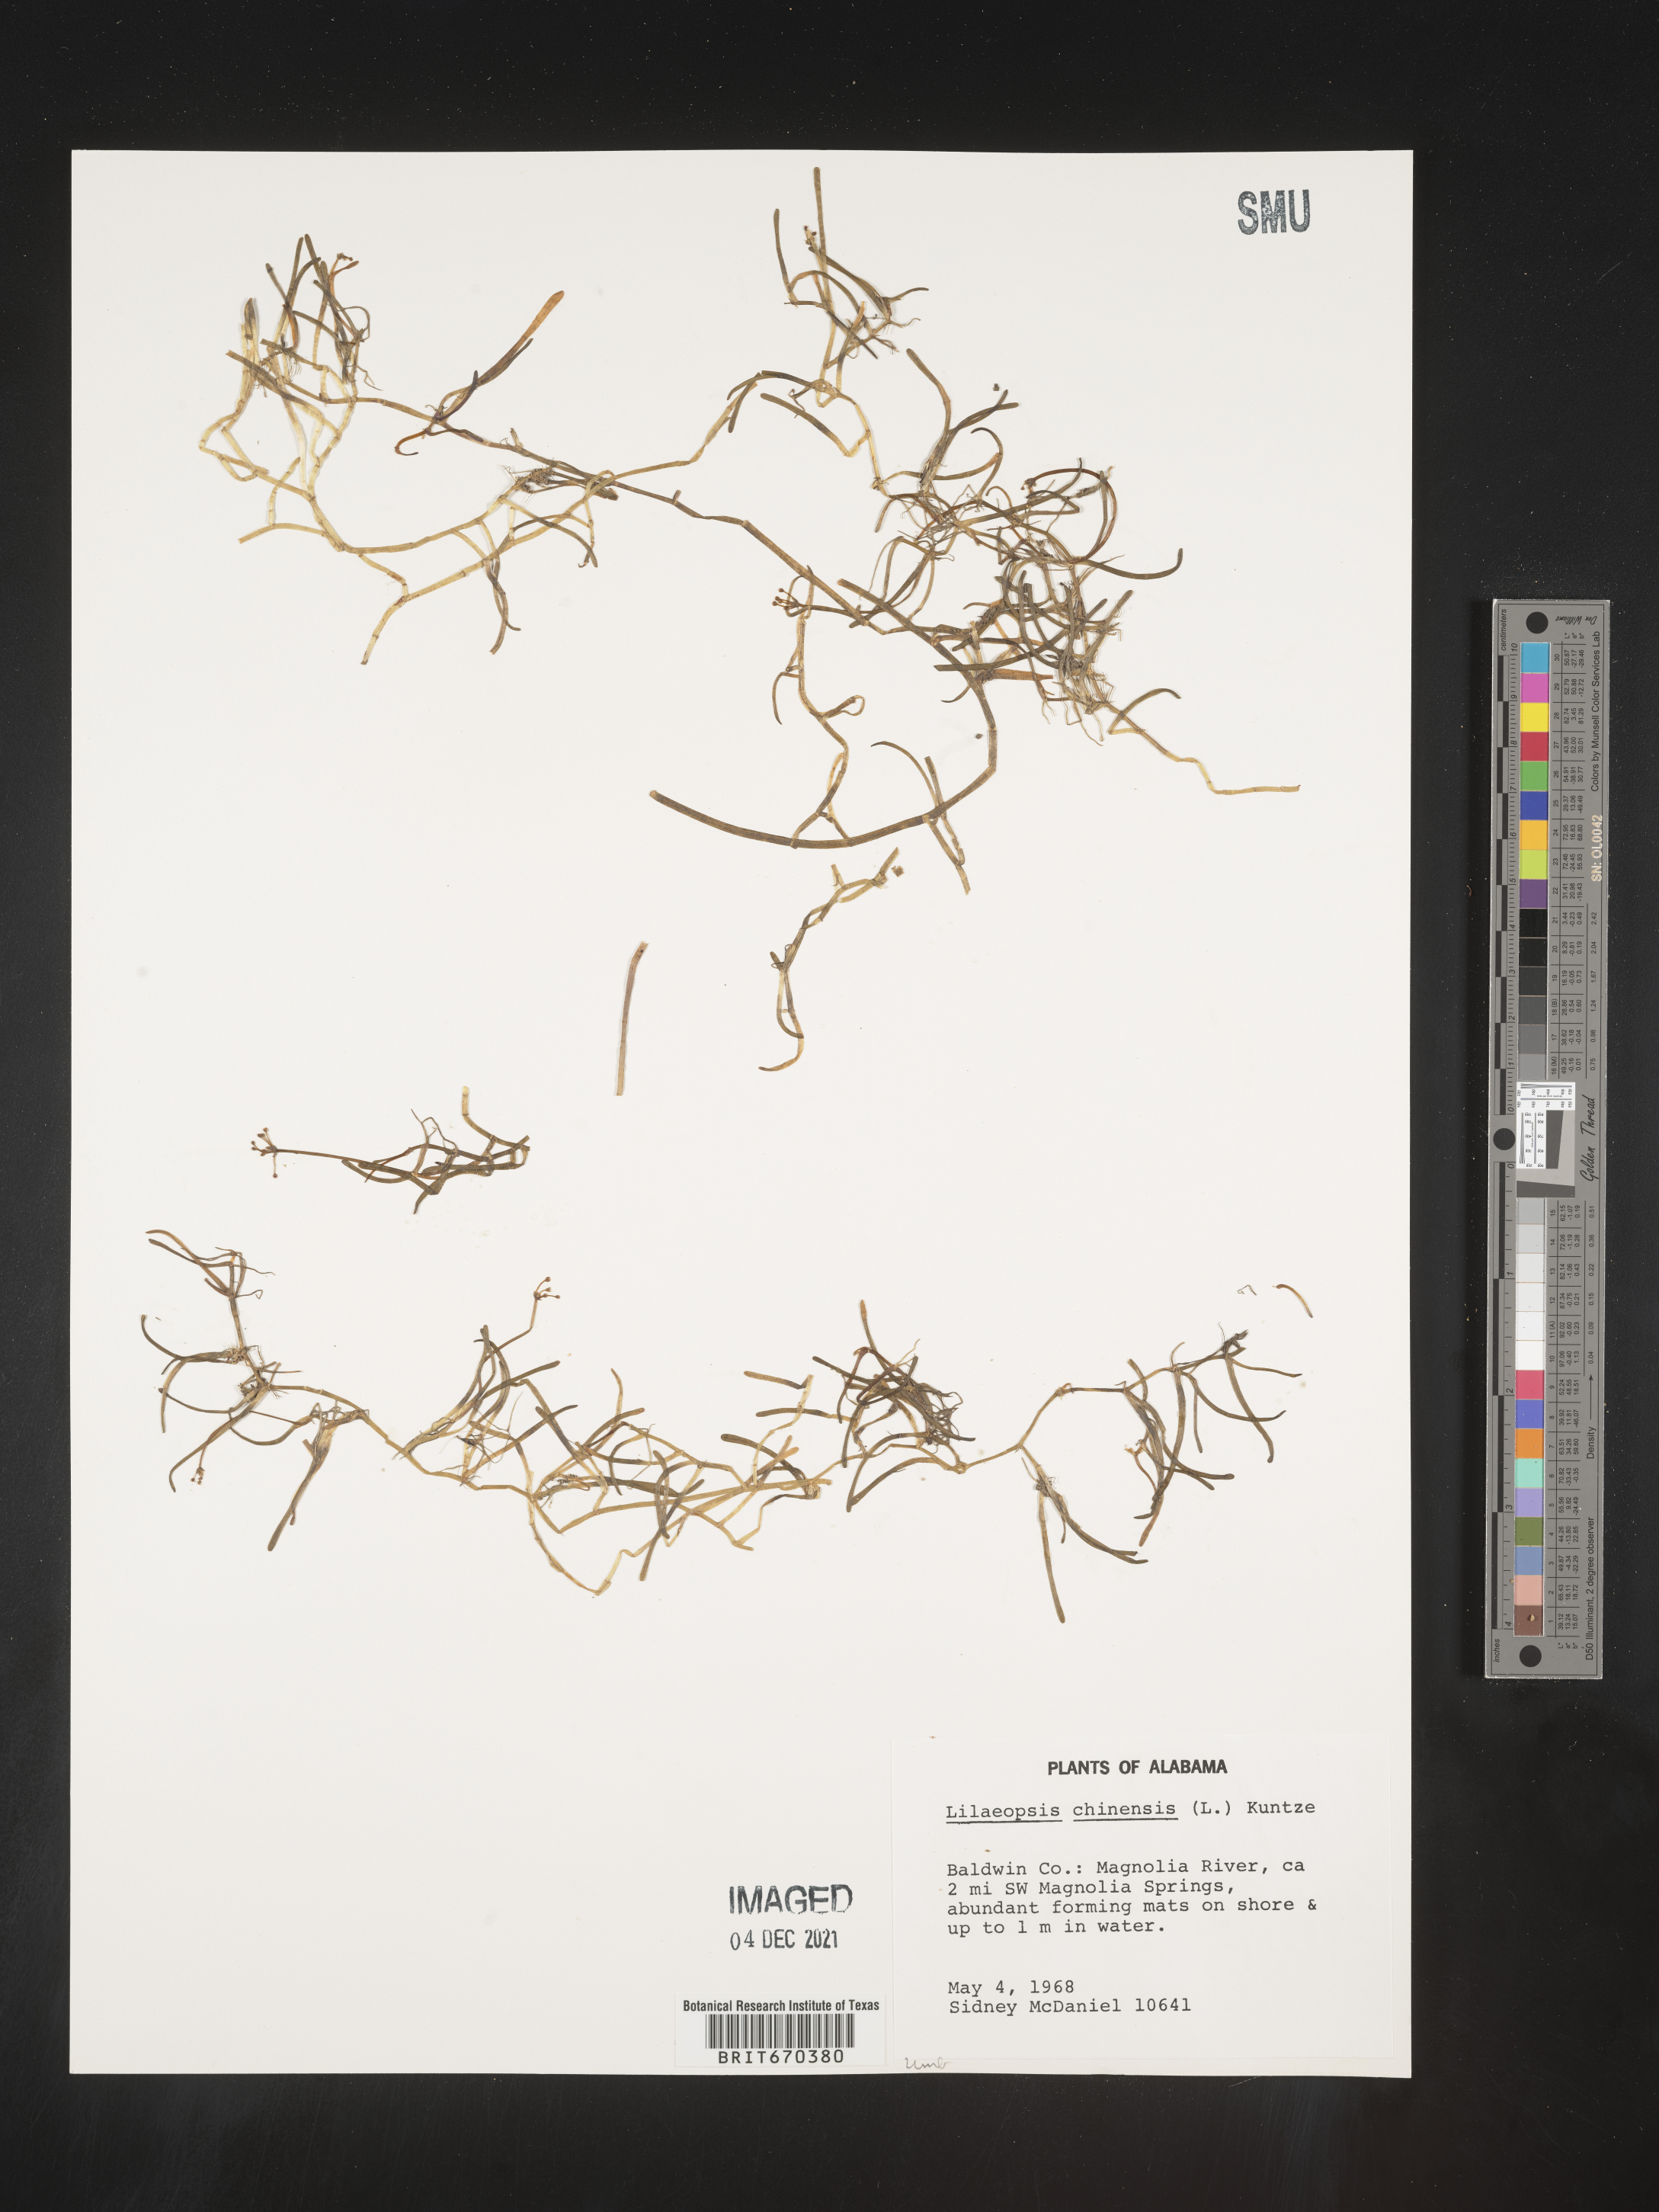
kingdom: Plantae
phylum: Tracheophyta
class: Magnoliopsida
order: Apiales
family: Apiaceae
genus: Lilaeopsis
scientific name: Lilaeopsis
